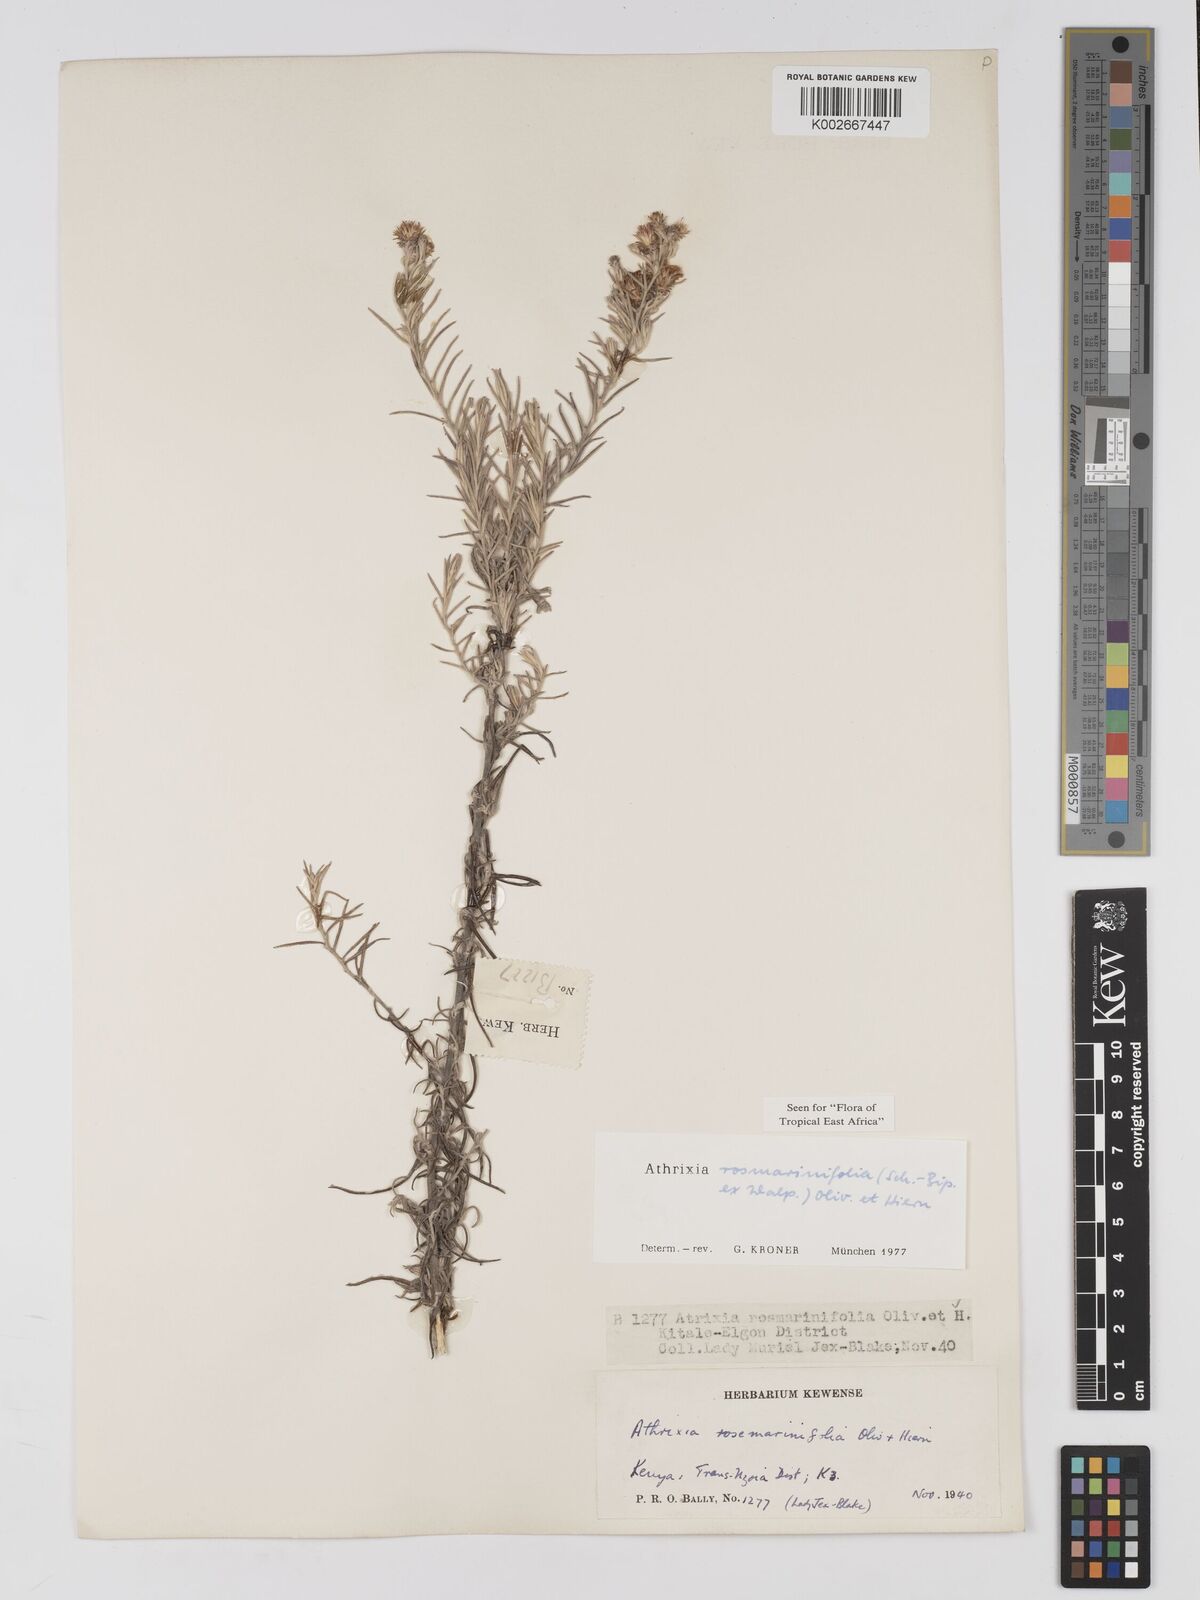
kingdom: Plantae
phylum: Tracheophyta
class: Magnoliopsida
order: Asterales
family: Asteraceae
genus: Athrixia
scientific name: Athrixia rosmarinifolia
